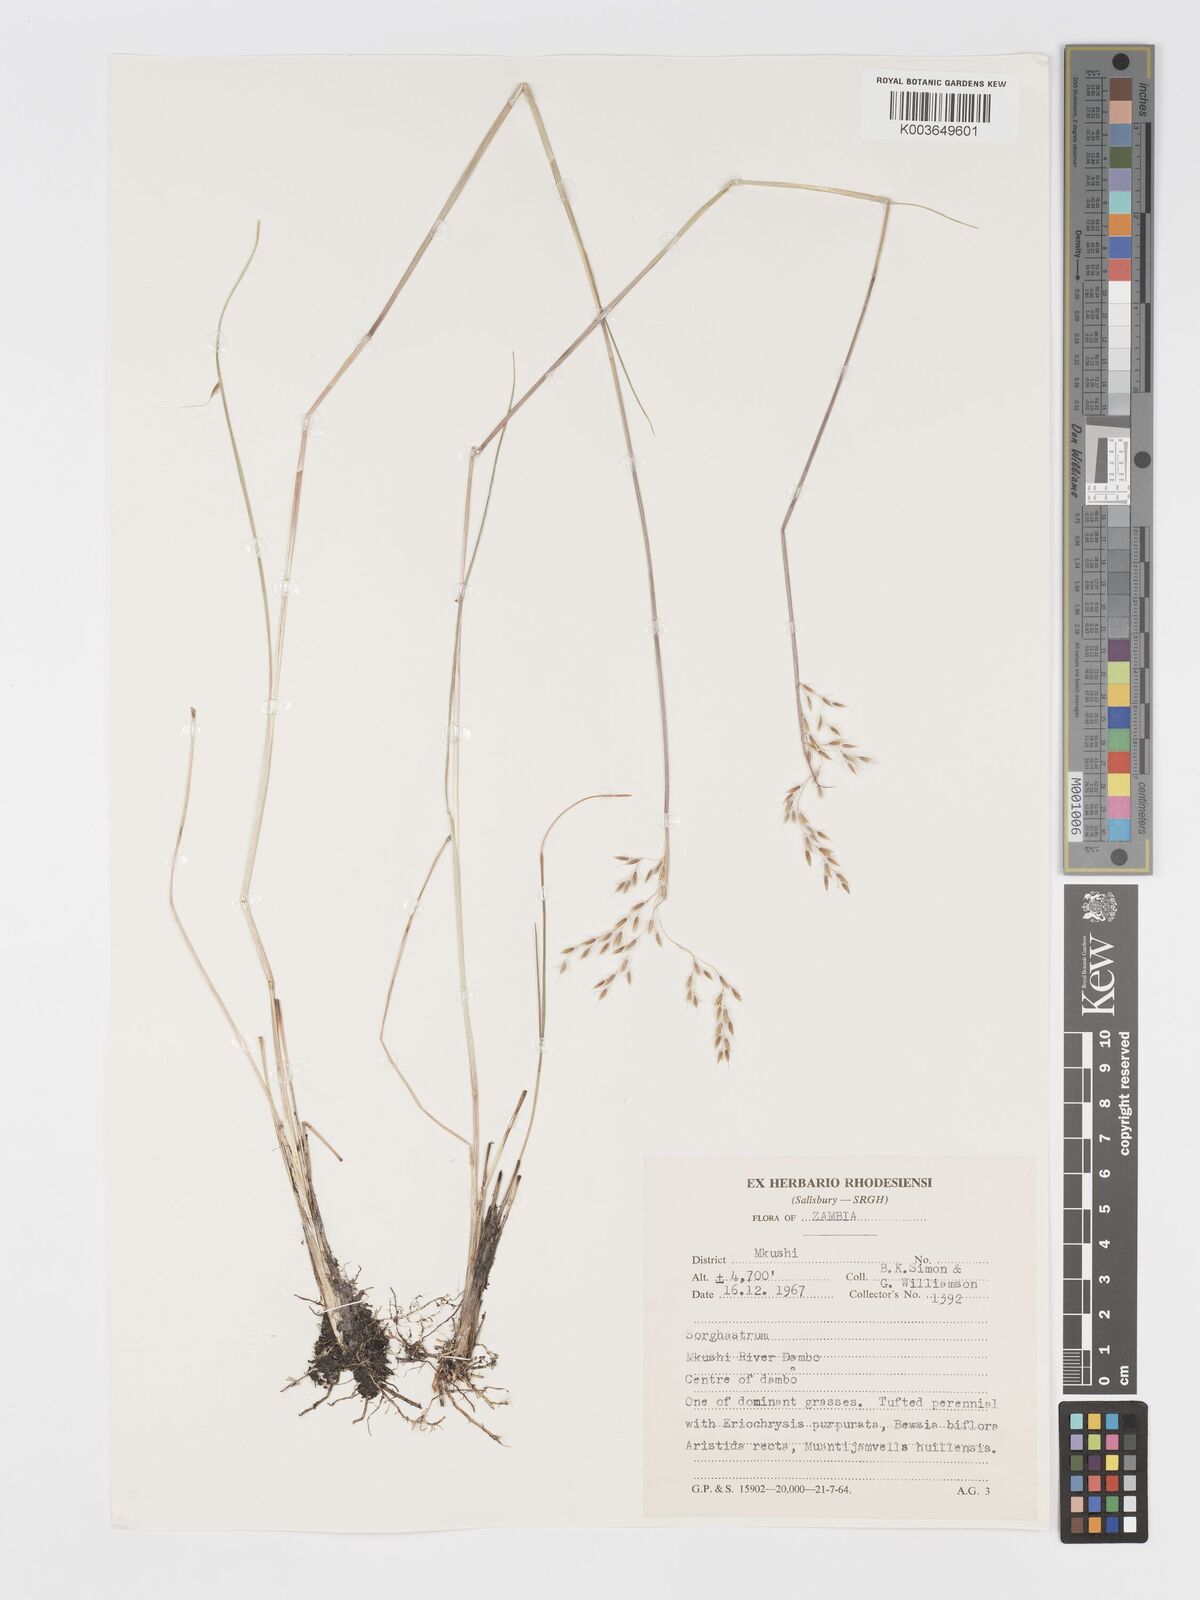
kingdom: Plantae
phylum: Tracheophyta
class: Liliopsida
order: Poales
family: Poaceae
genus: Sorghastrum
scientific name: Sorghastrum pogonostachyum
